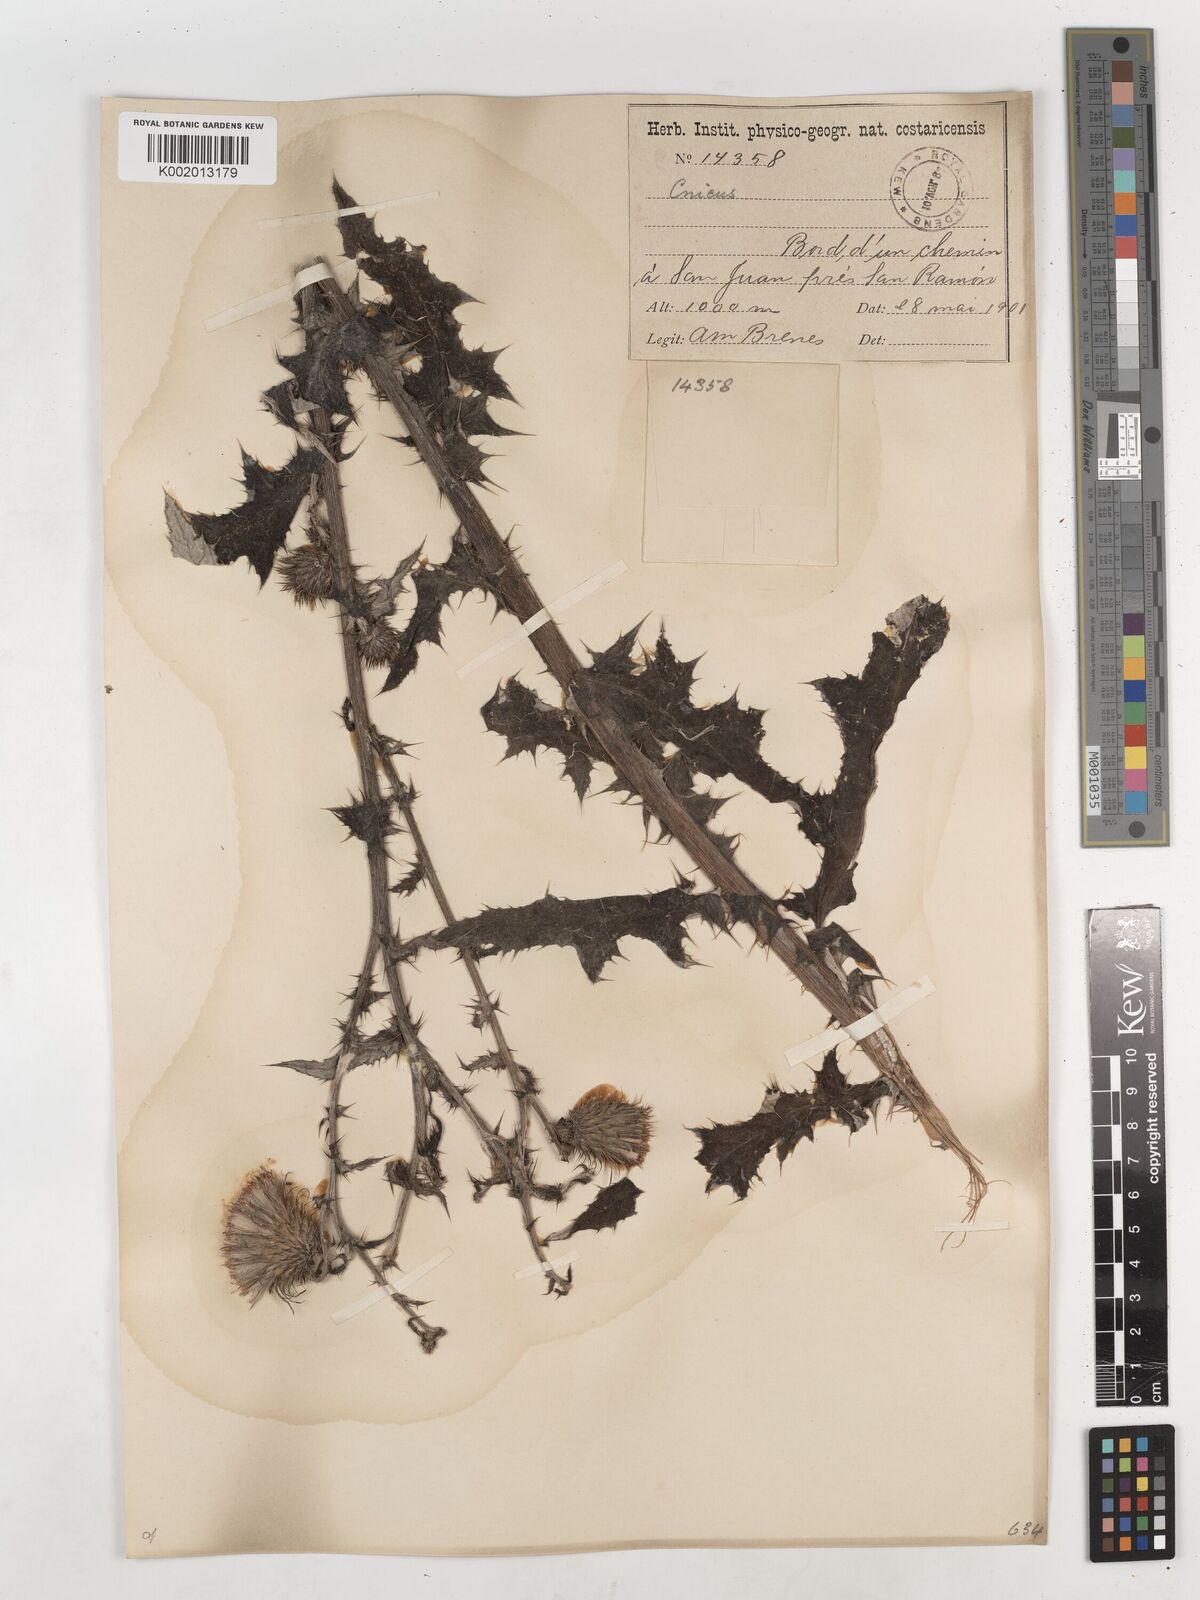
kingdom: Plantae
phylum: Tracheophyta
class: Magnoliopsida
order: Asterales
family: Asteraceae
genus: Cirsium
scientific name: Cirsium
